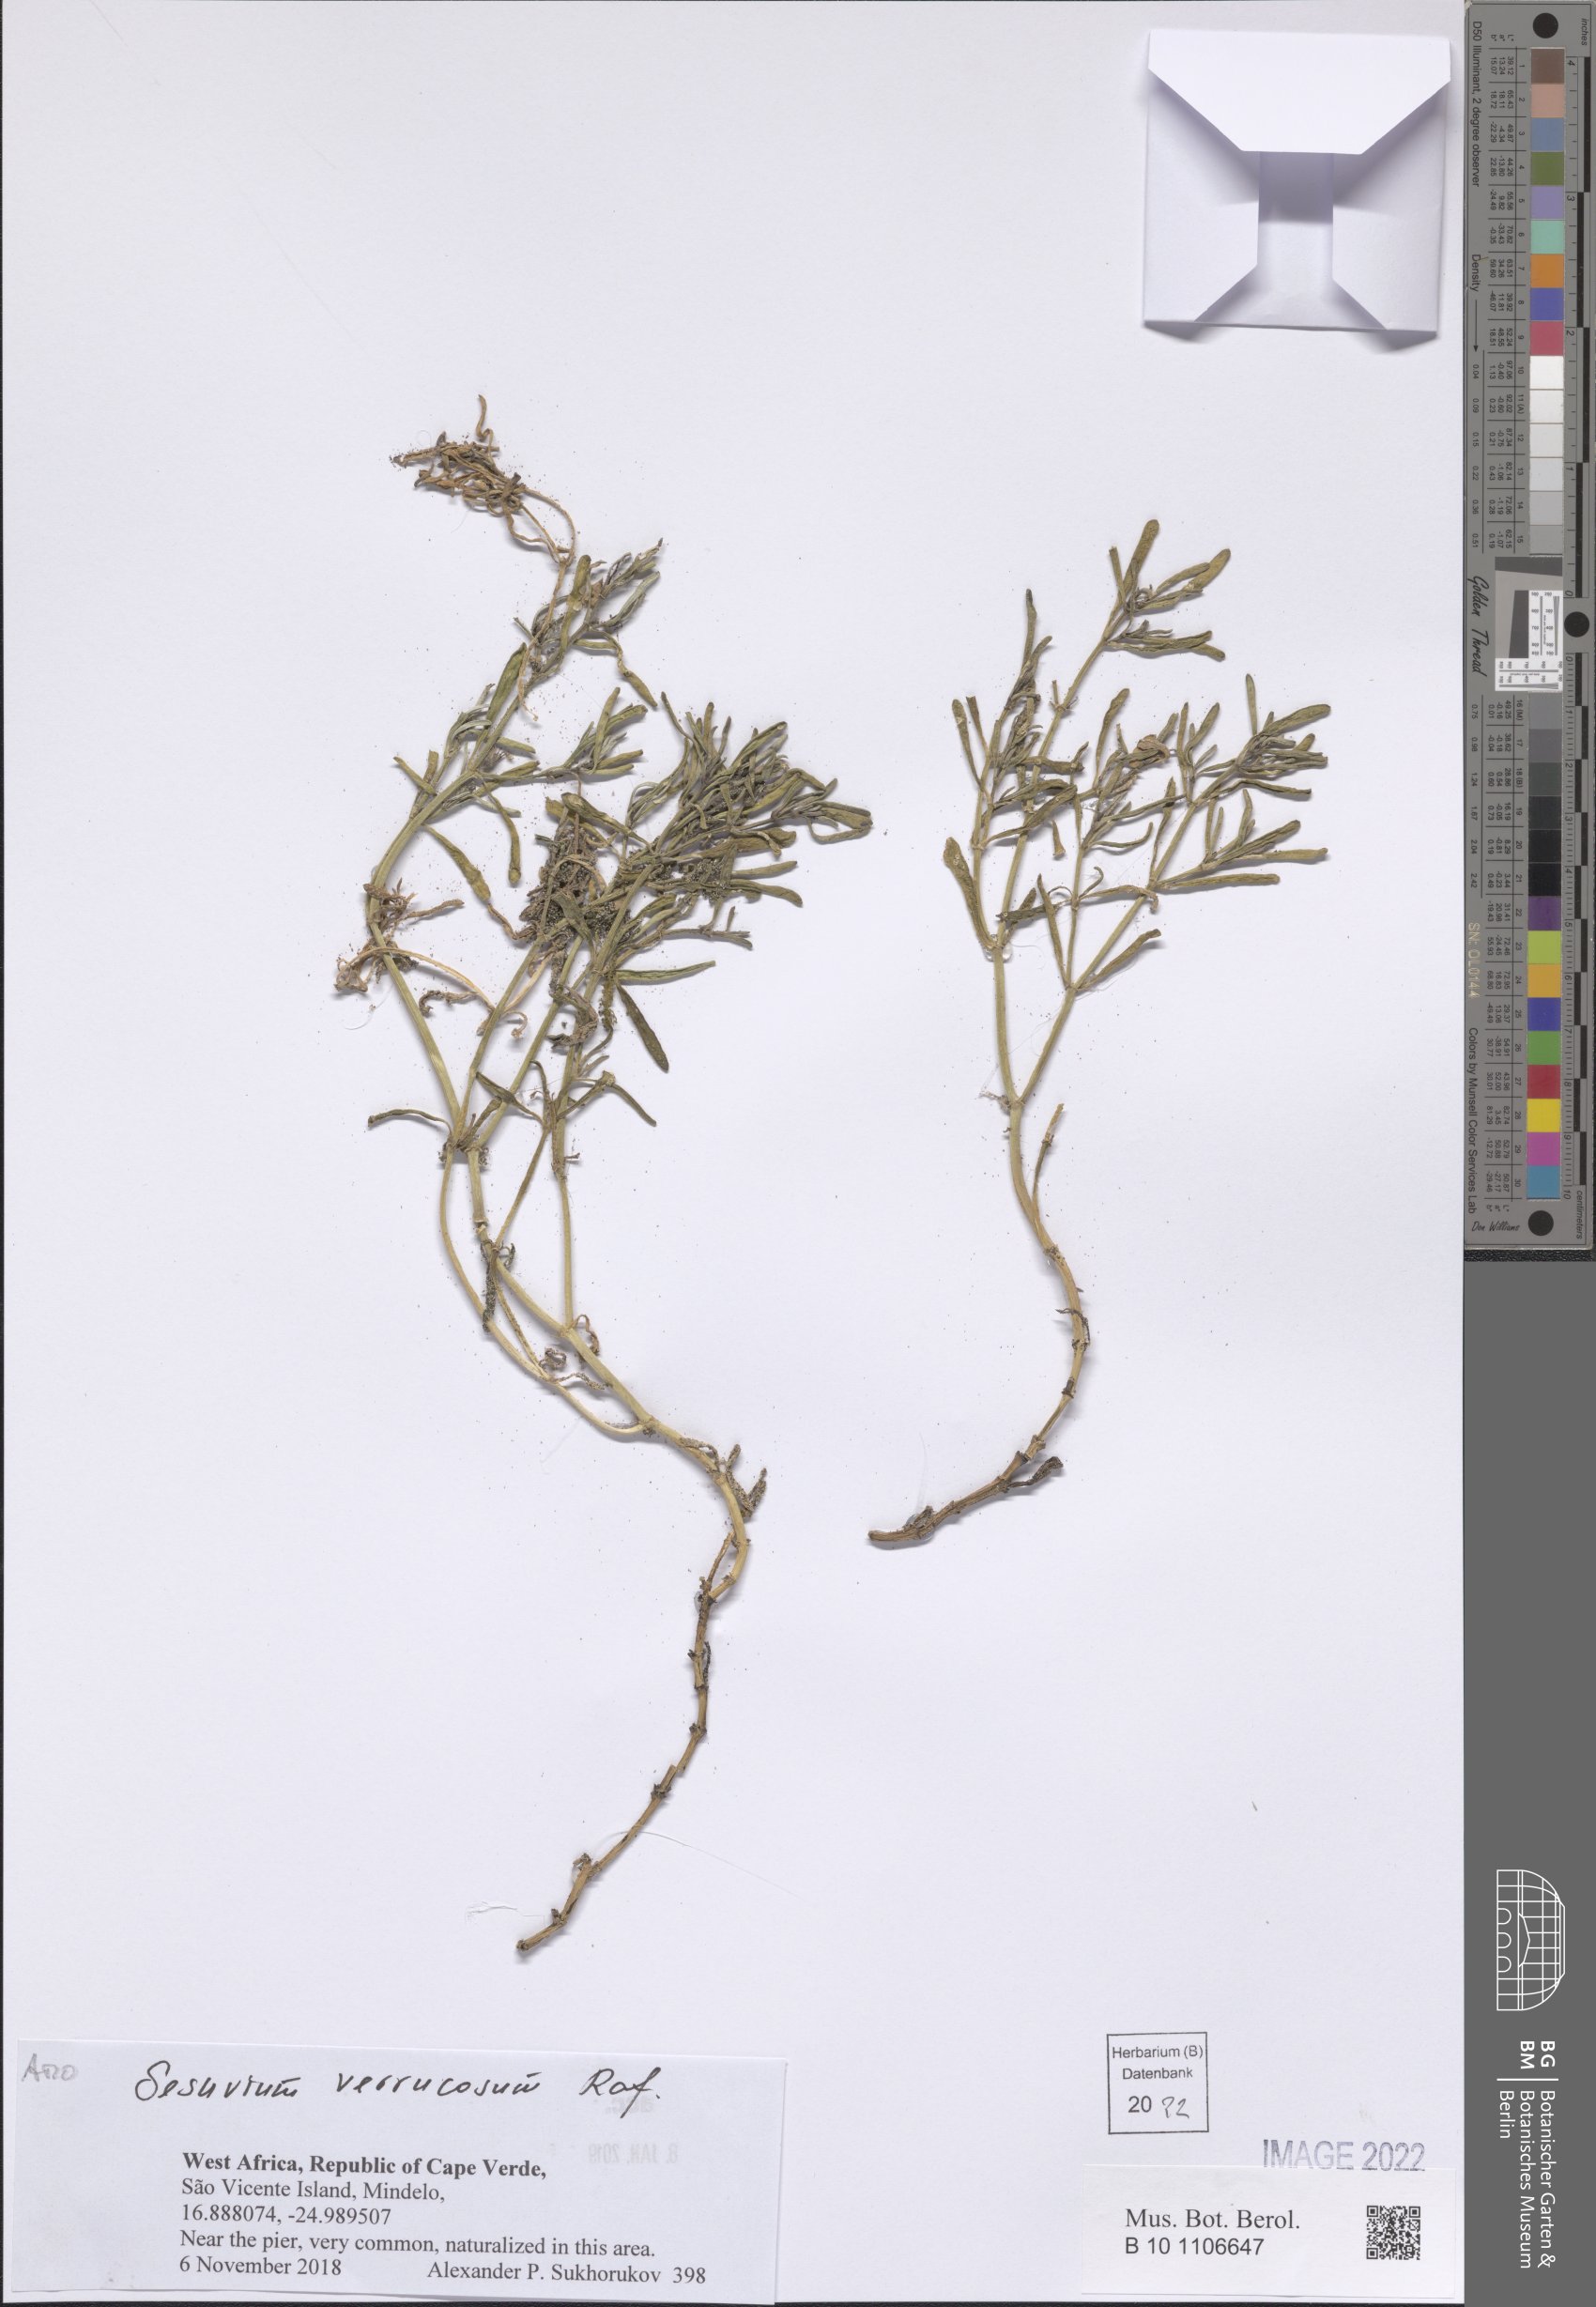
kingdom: Plantae
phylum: Tracheophyta
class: Magnoliopsida
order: Caryophyllales
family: Aizoaceae
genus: Sesuvium
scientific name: Sesuvium revolutifolium
